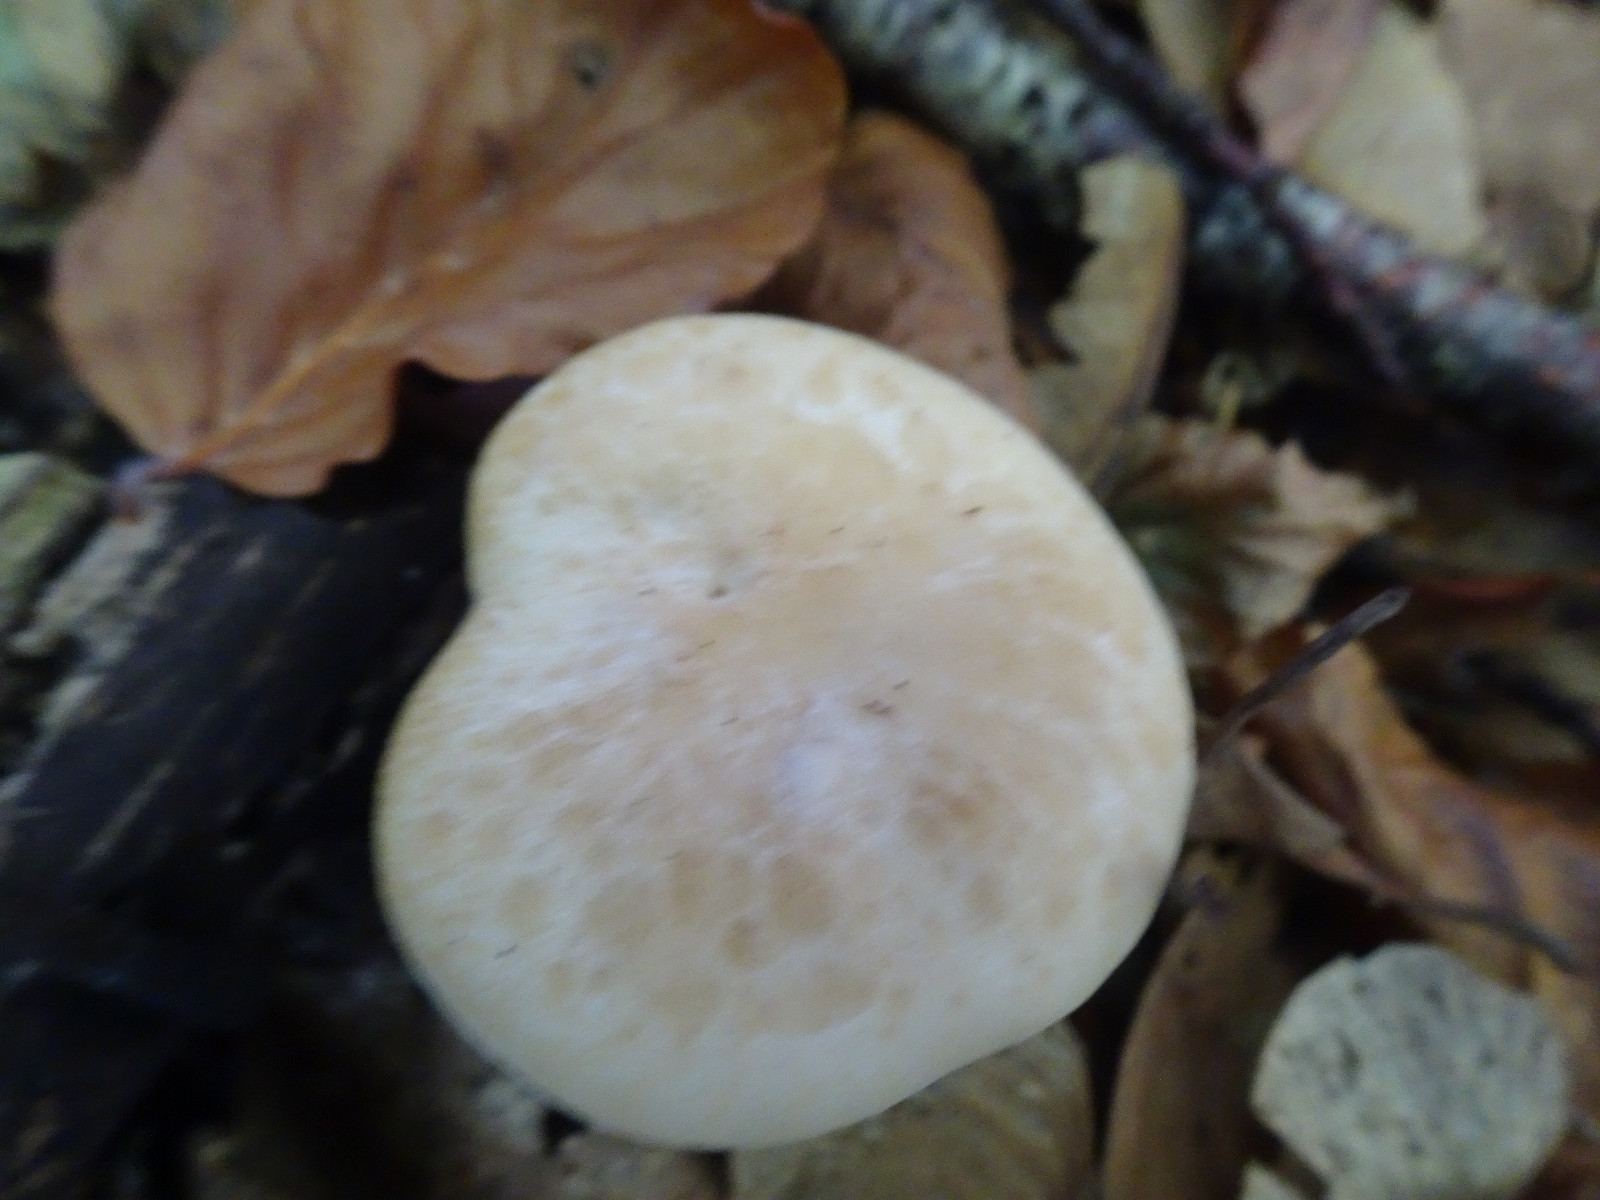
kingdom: Fungi
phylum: Basidiomycota
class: Agaricomycetes
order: Agaricales
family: Tricholomataceae
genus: Paralepista
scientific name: Paralepista gilva
